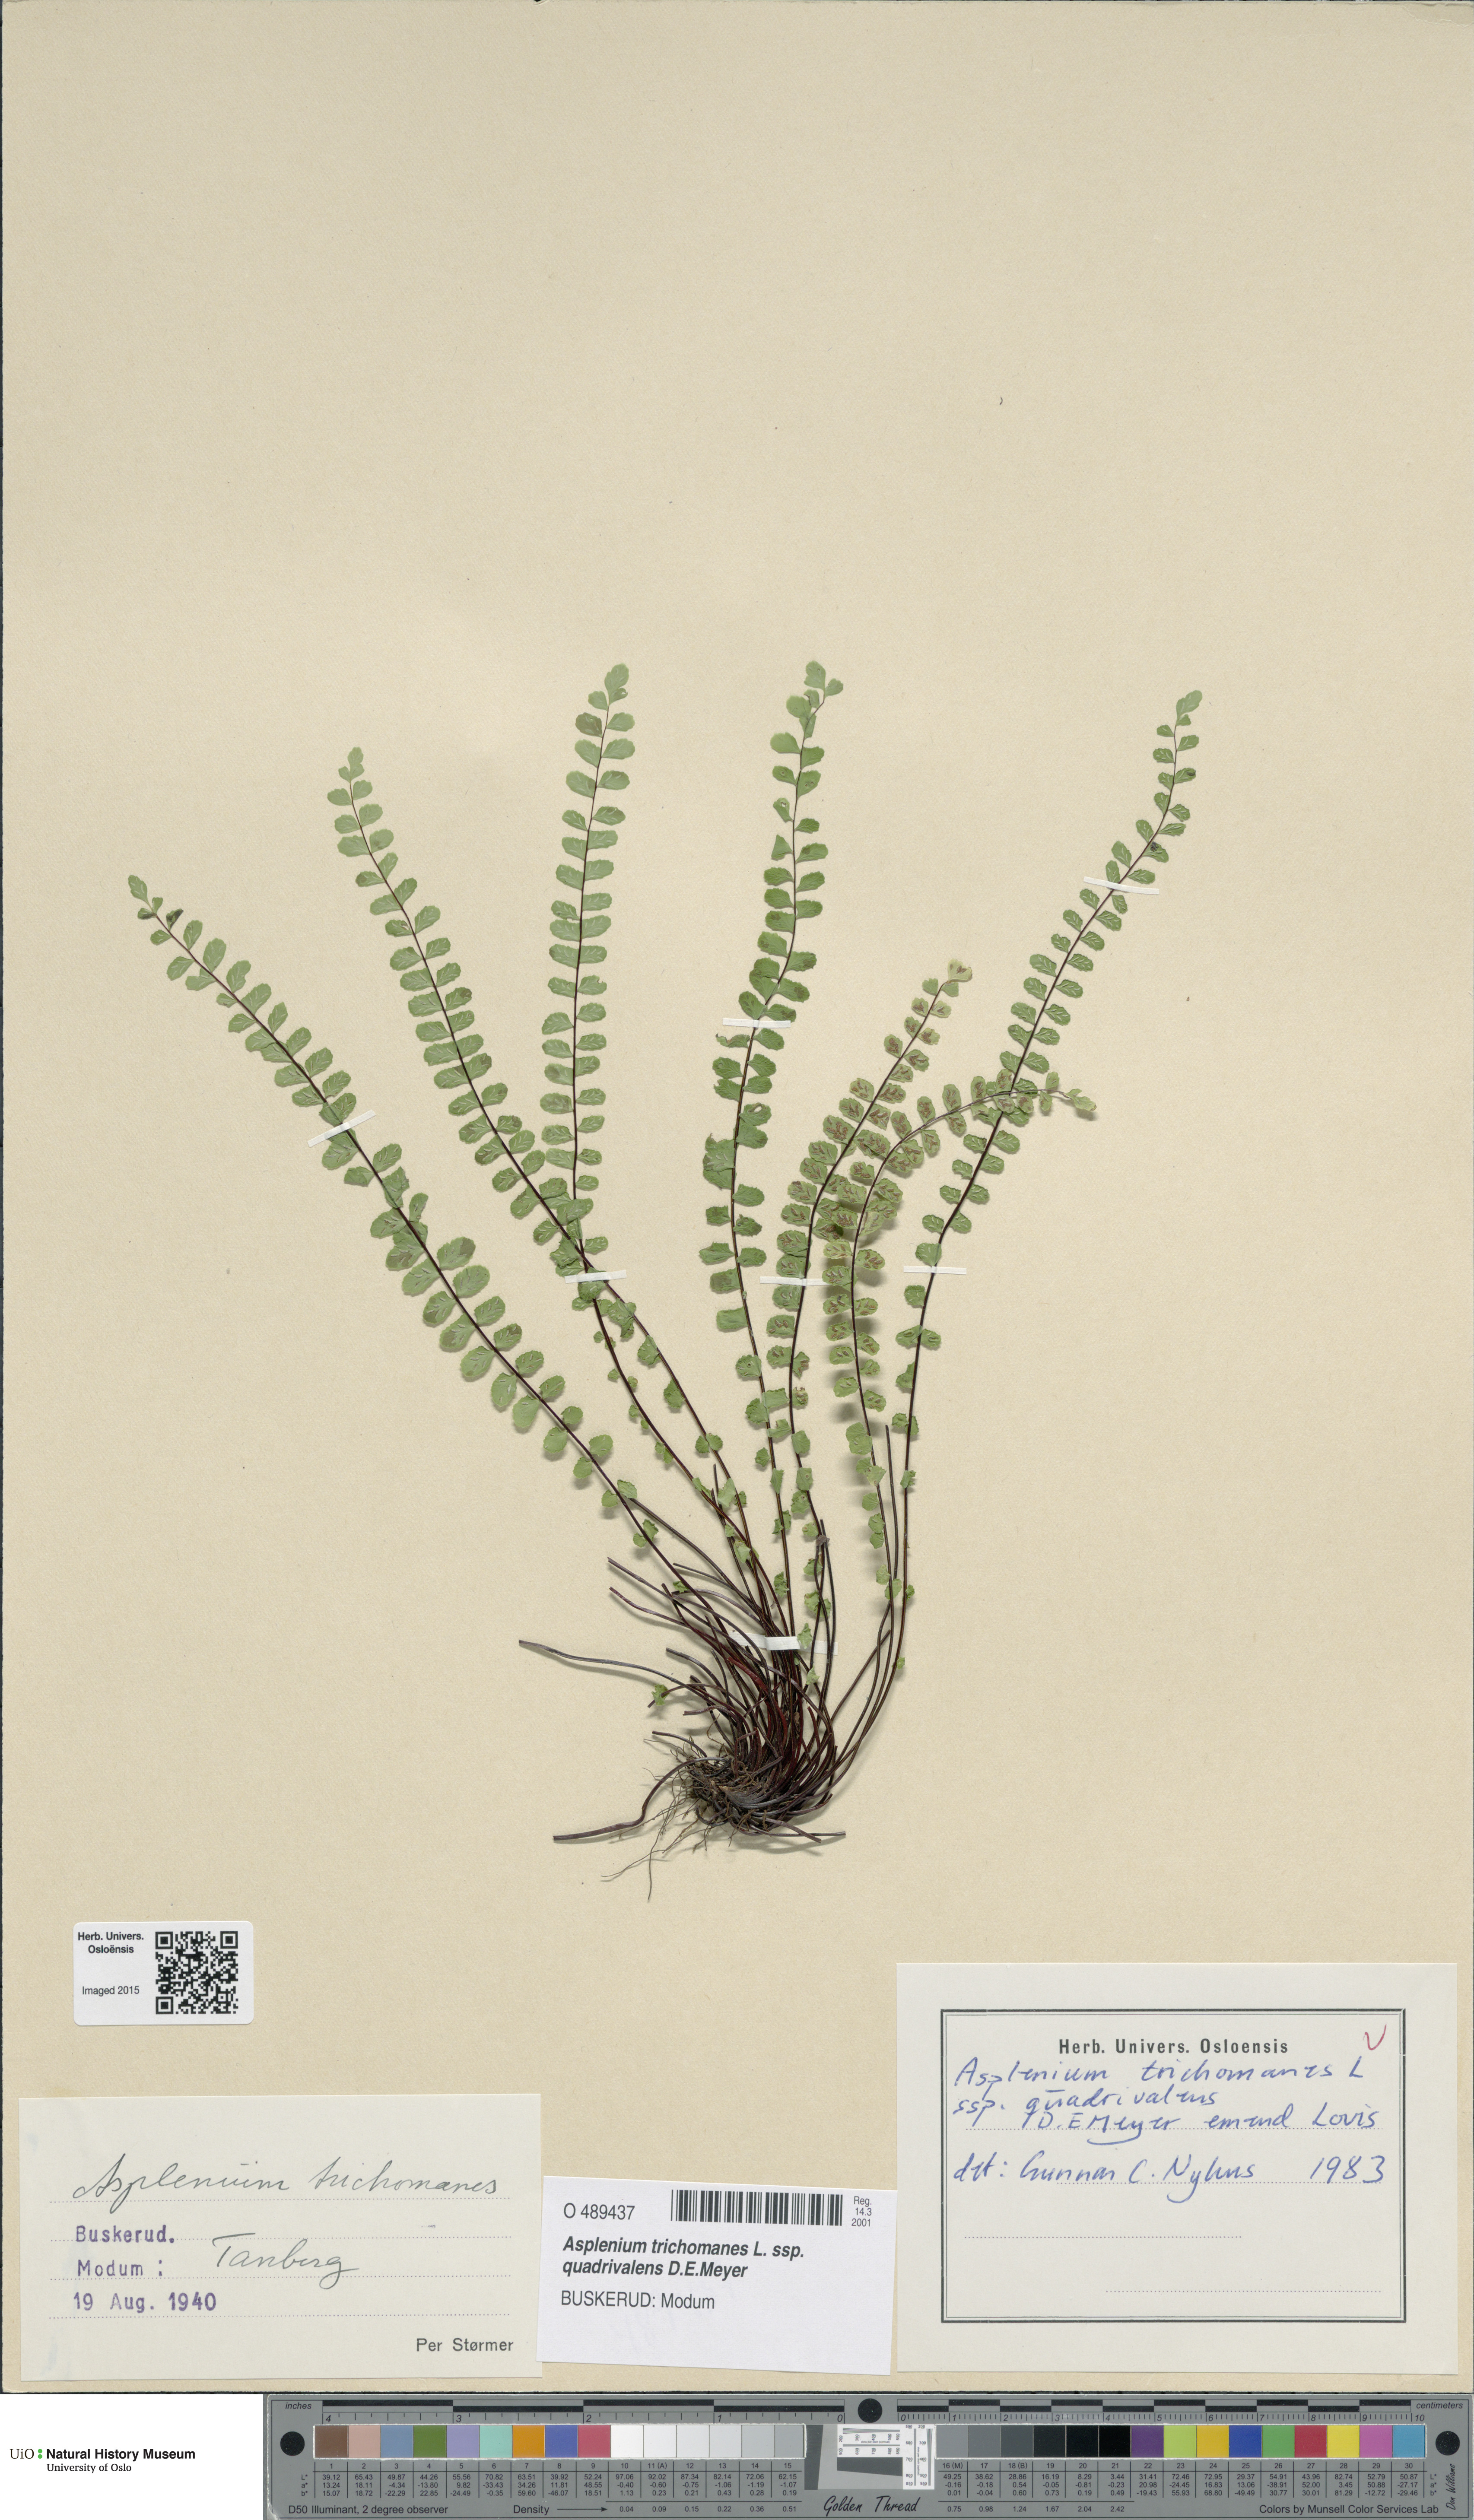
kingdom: Plantae
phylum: Tracheophyta
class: Polypodiopsida
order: Polypodiales
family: Aspleniaceae
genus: Asplenium
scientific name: Asplenium quadrivalens
